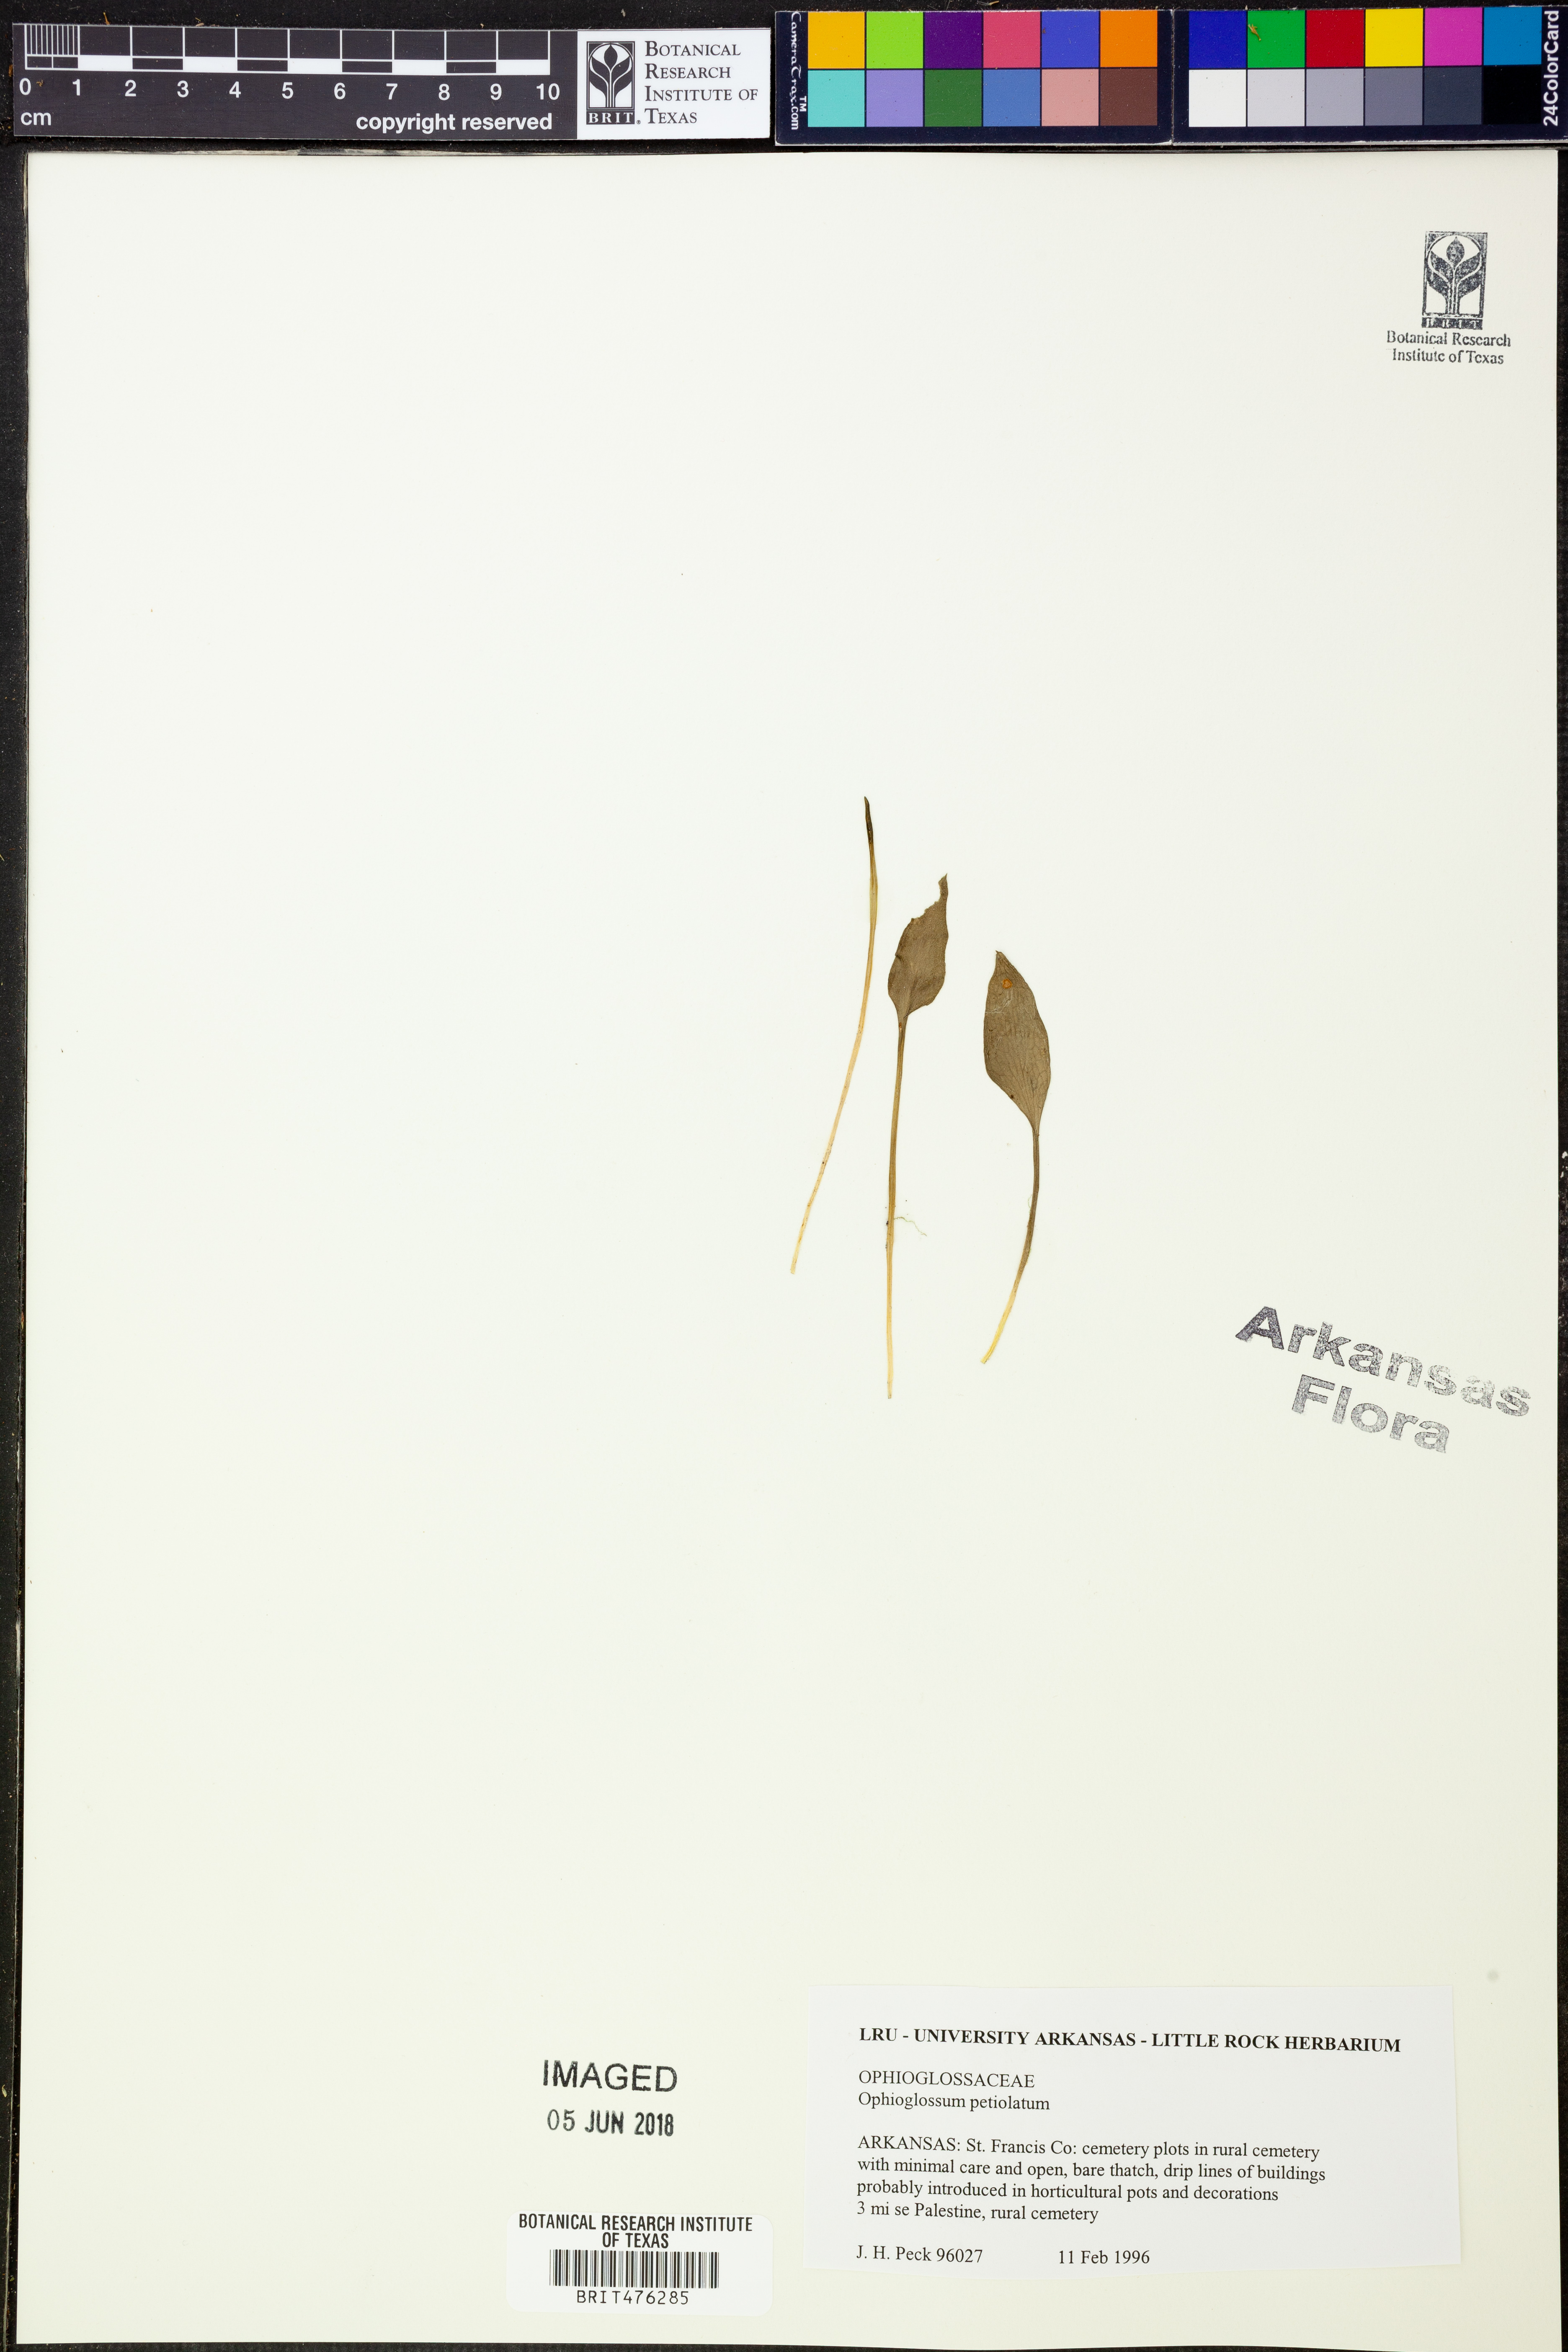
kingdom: Plantae
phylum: Tracheophyta
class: Polypodiopsida
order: Ophioglossales
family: Ophioglossaceae
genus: Ophioglossum
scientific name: Ophioglossum petiolatum
